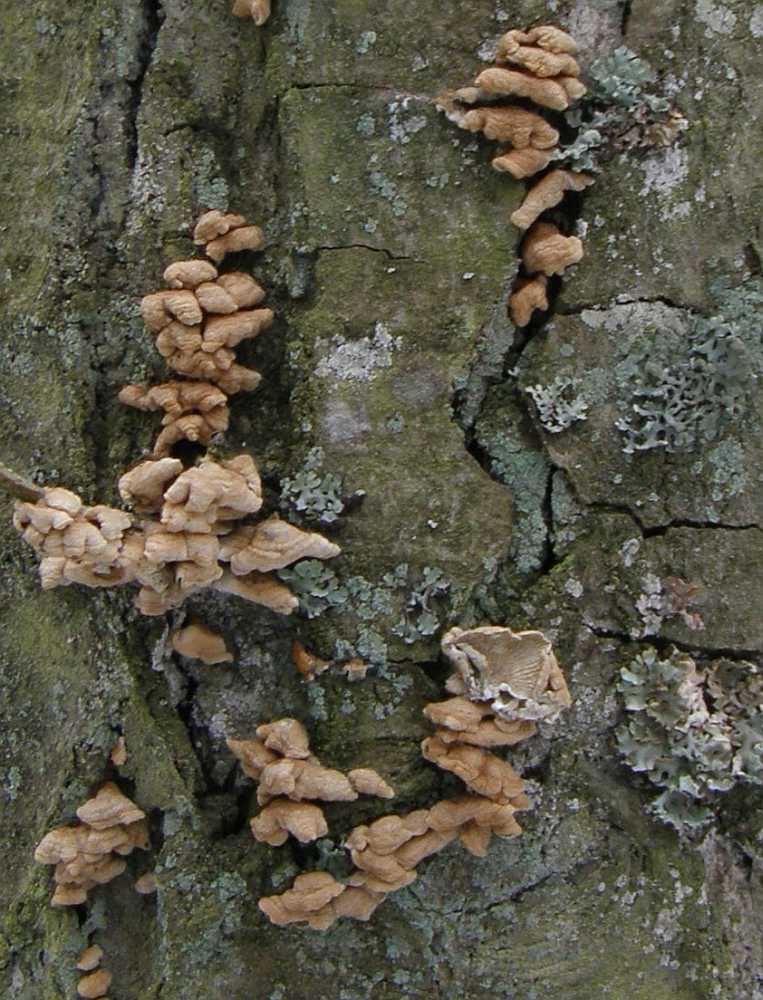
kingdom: Fungi
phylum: Basidiomycota
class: Agaricomycetes
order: Amylocorticiales
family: Amylocorticiaceae
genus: Plicaturopsis
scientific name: Plicaturopsis crispa
